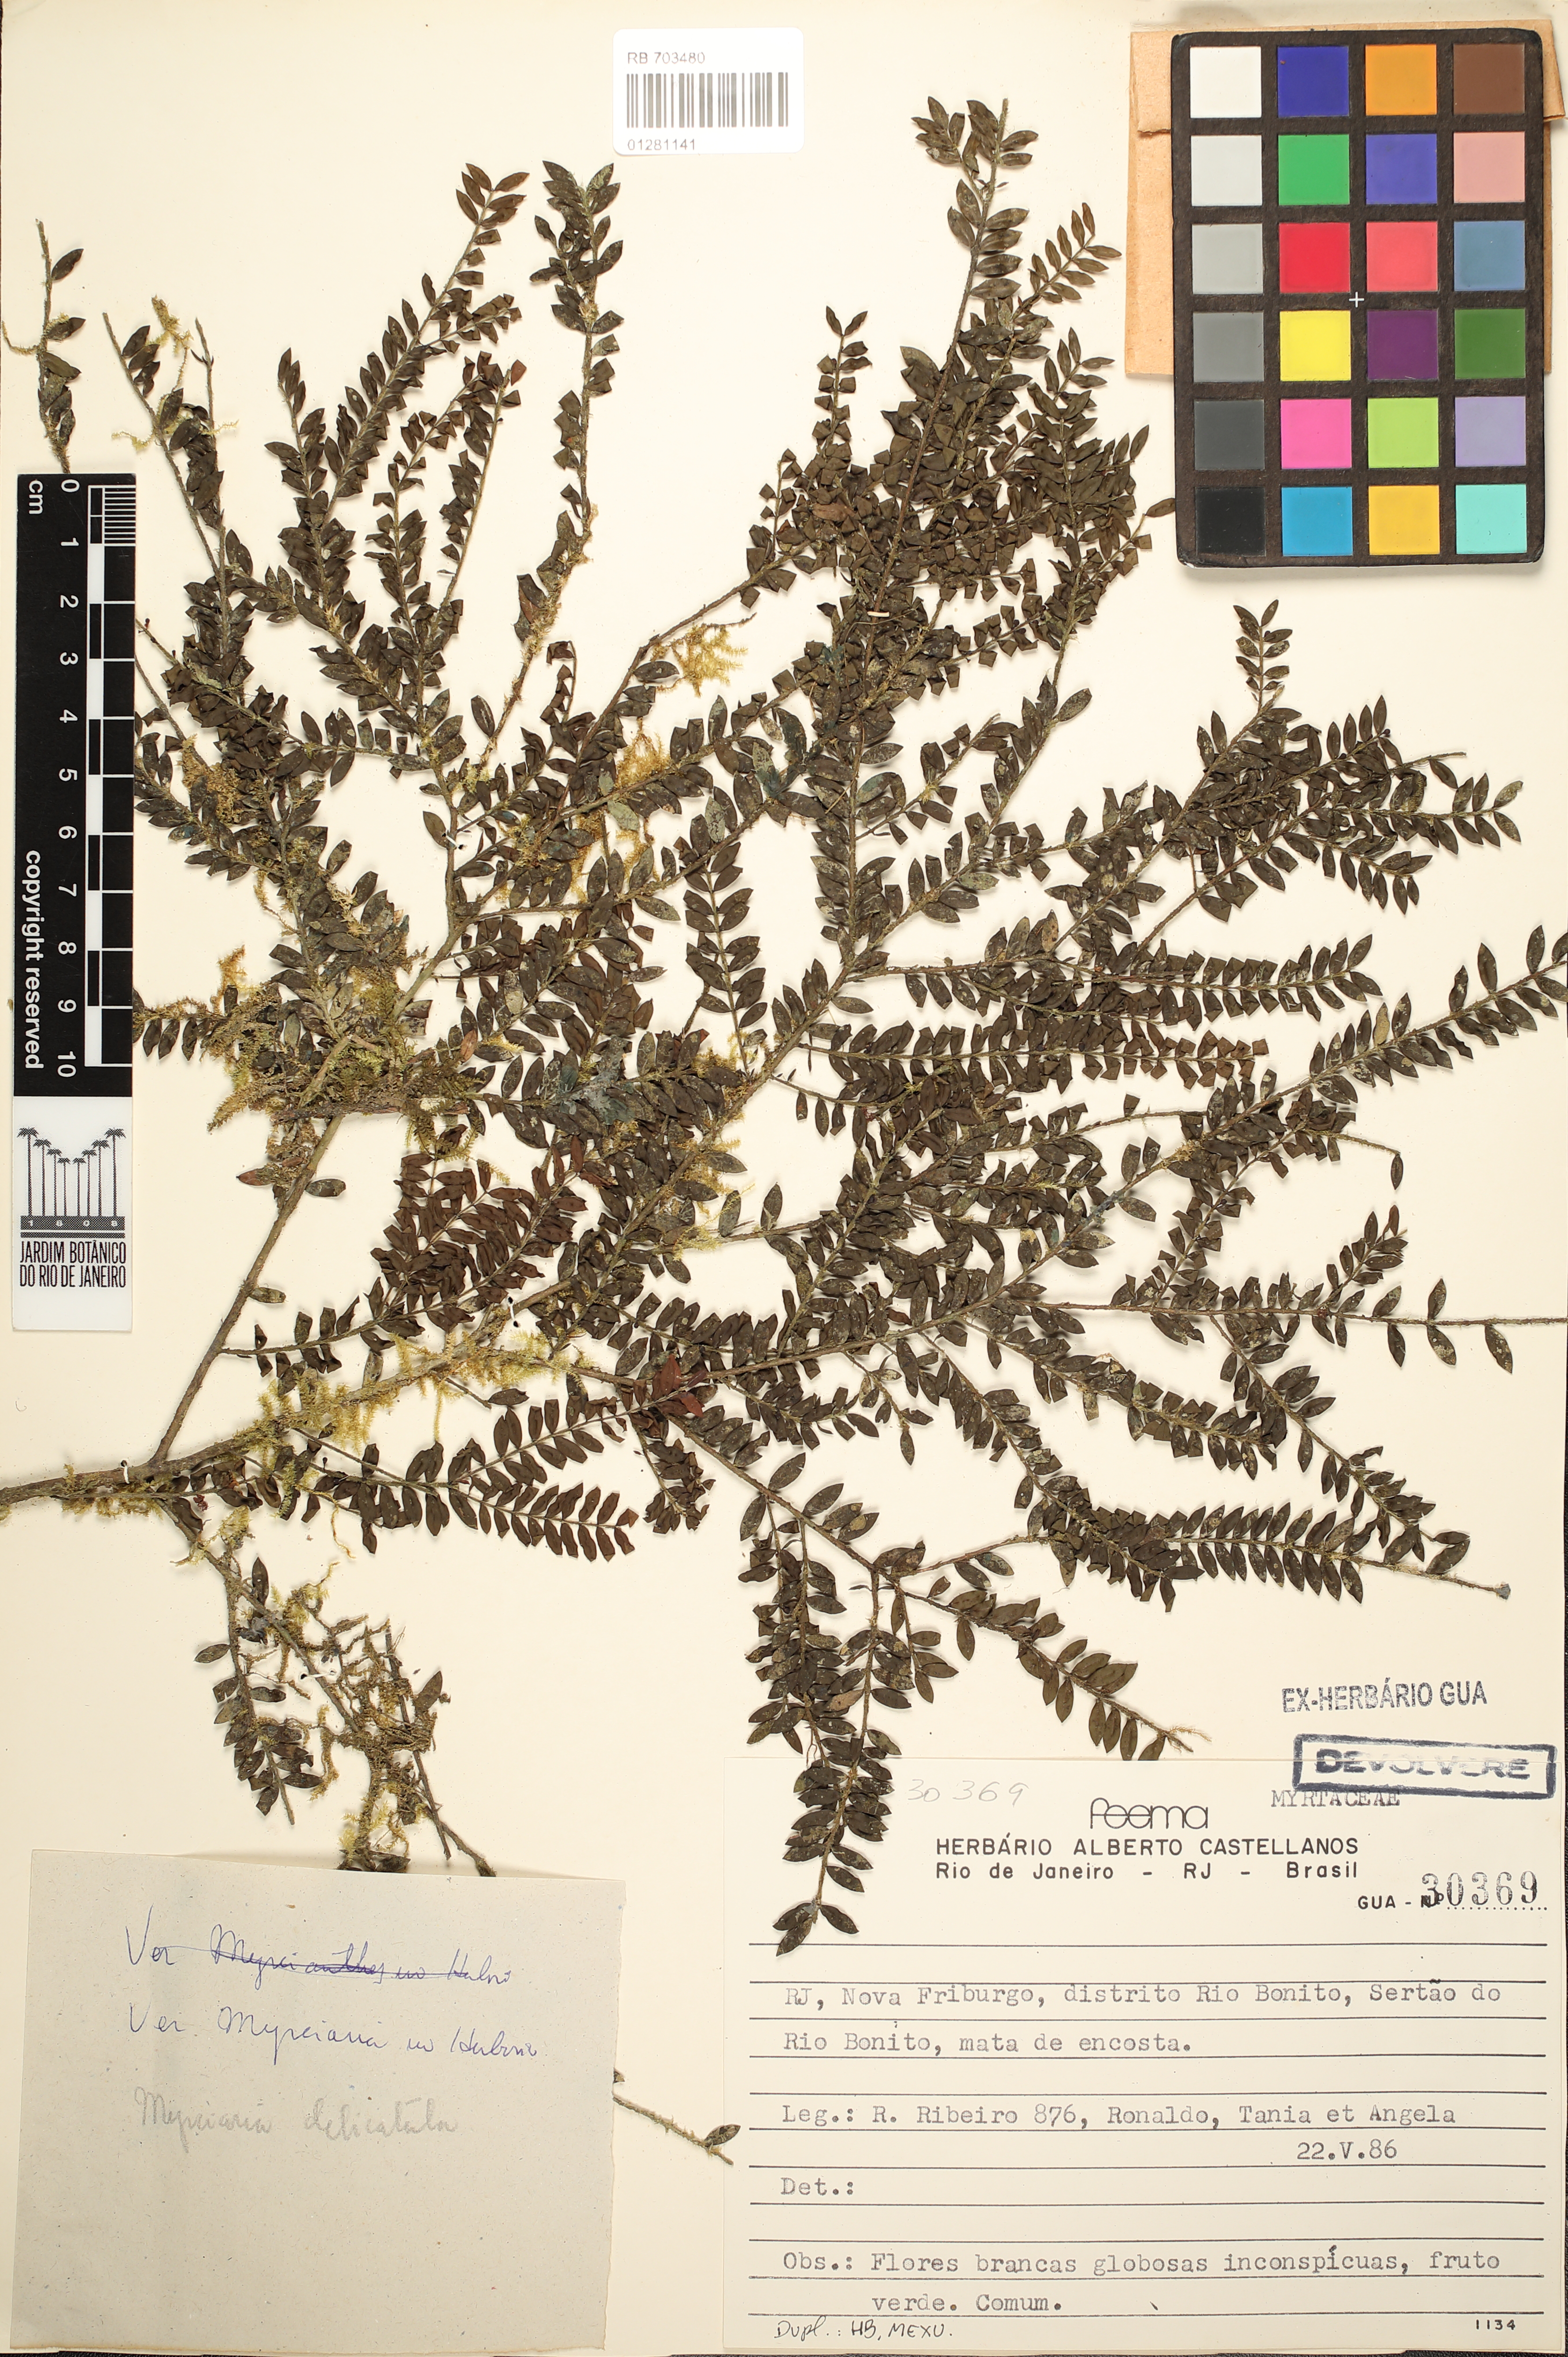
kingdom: Plantae
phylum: Tracheophyta
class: Magnoliopsida
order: Myrtales
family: Myrtaceae
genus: Myrciaria
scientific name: Myrciaria delicatula
